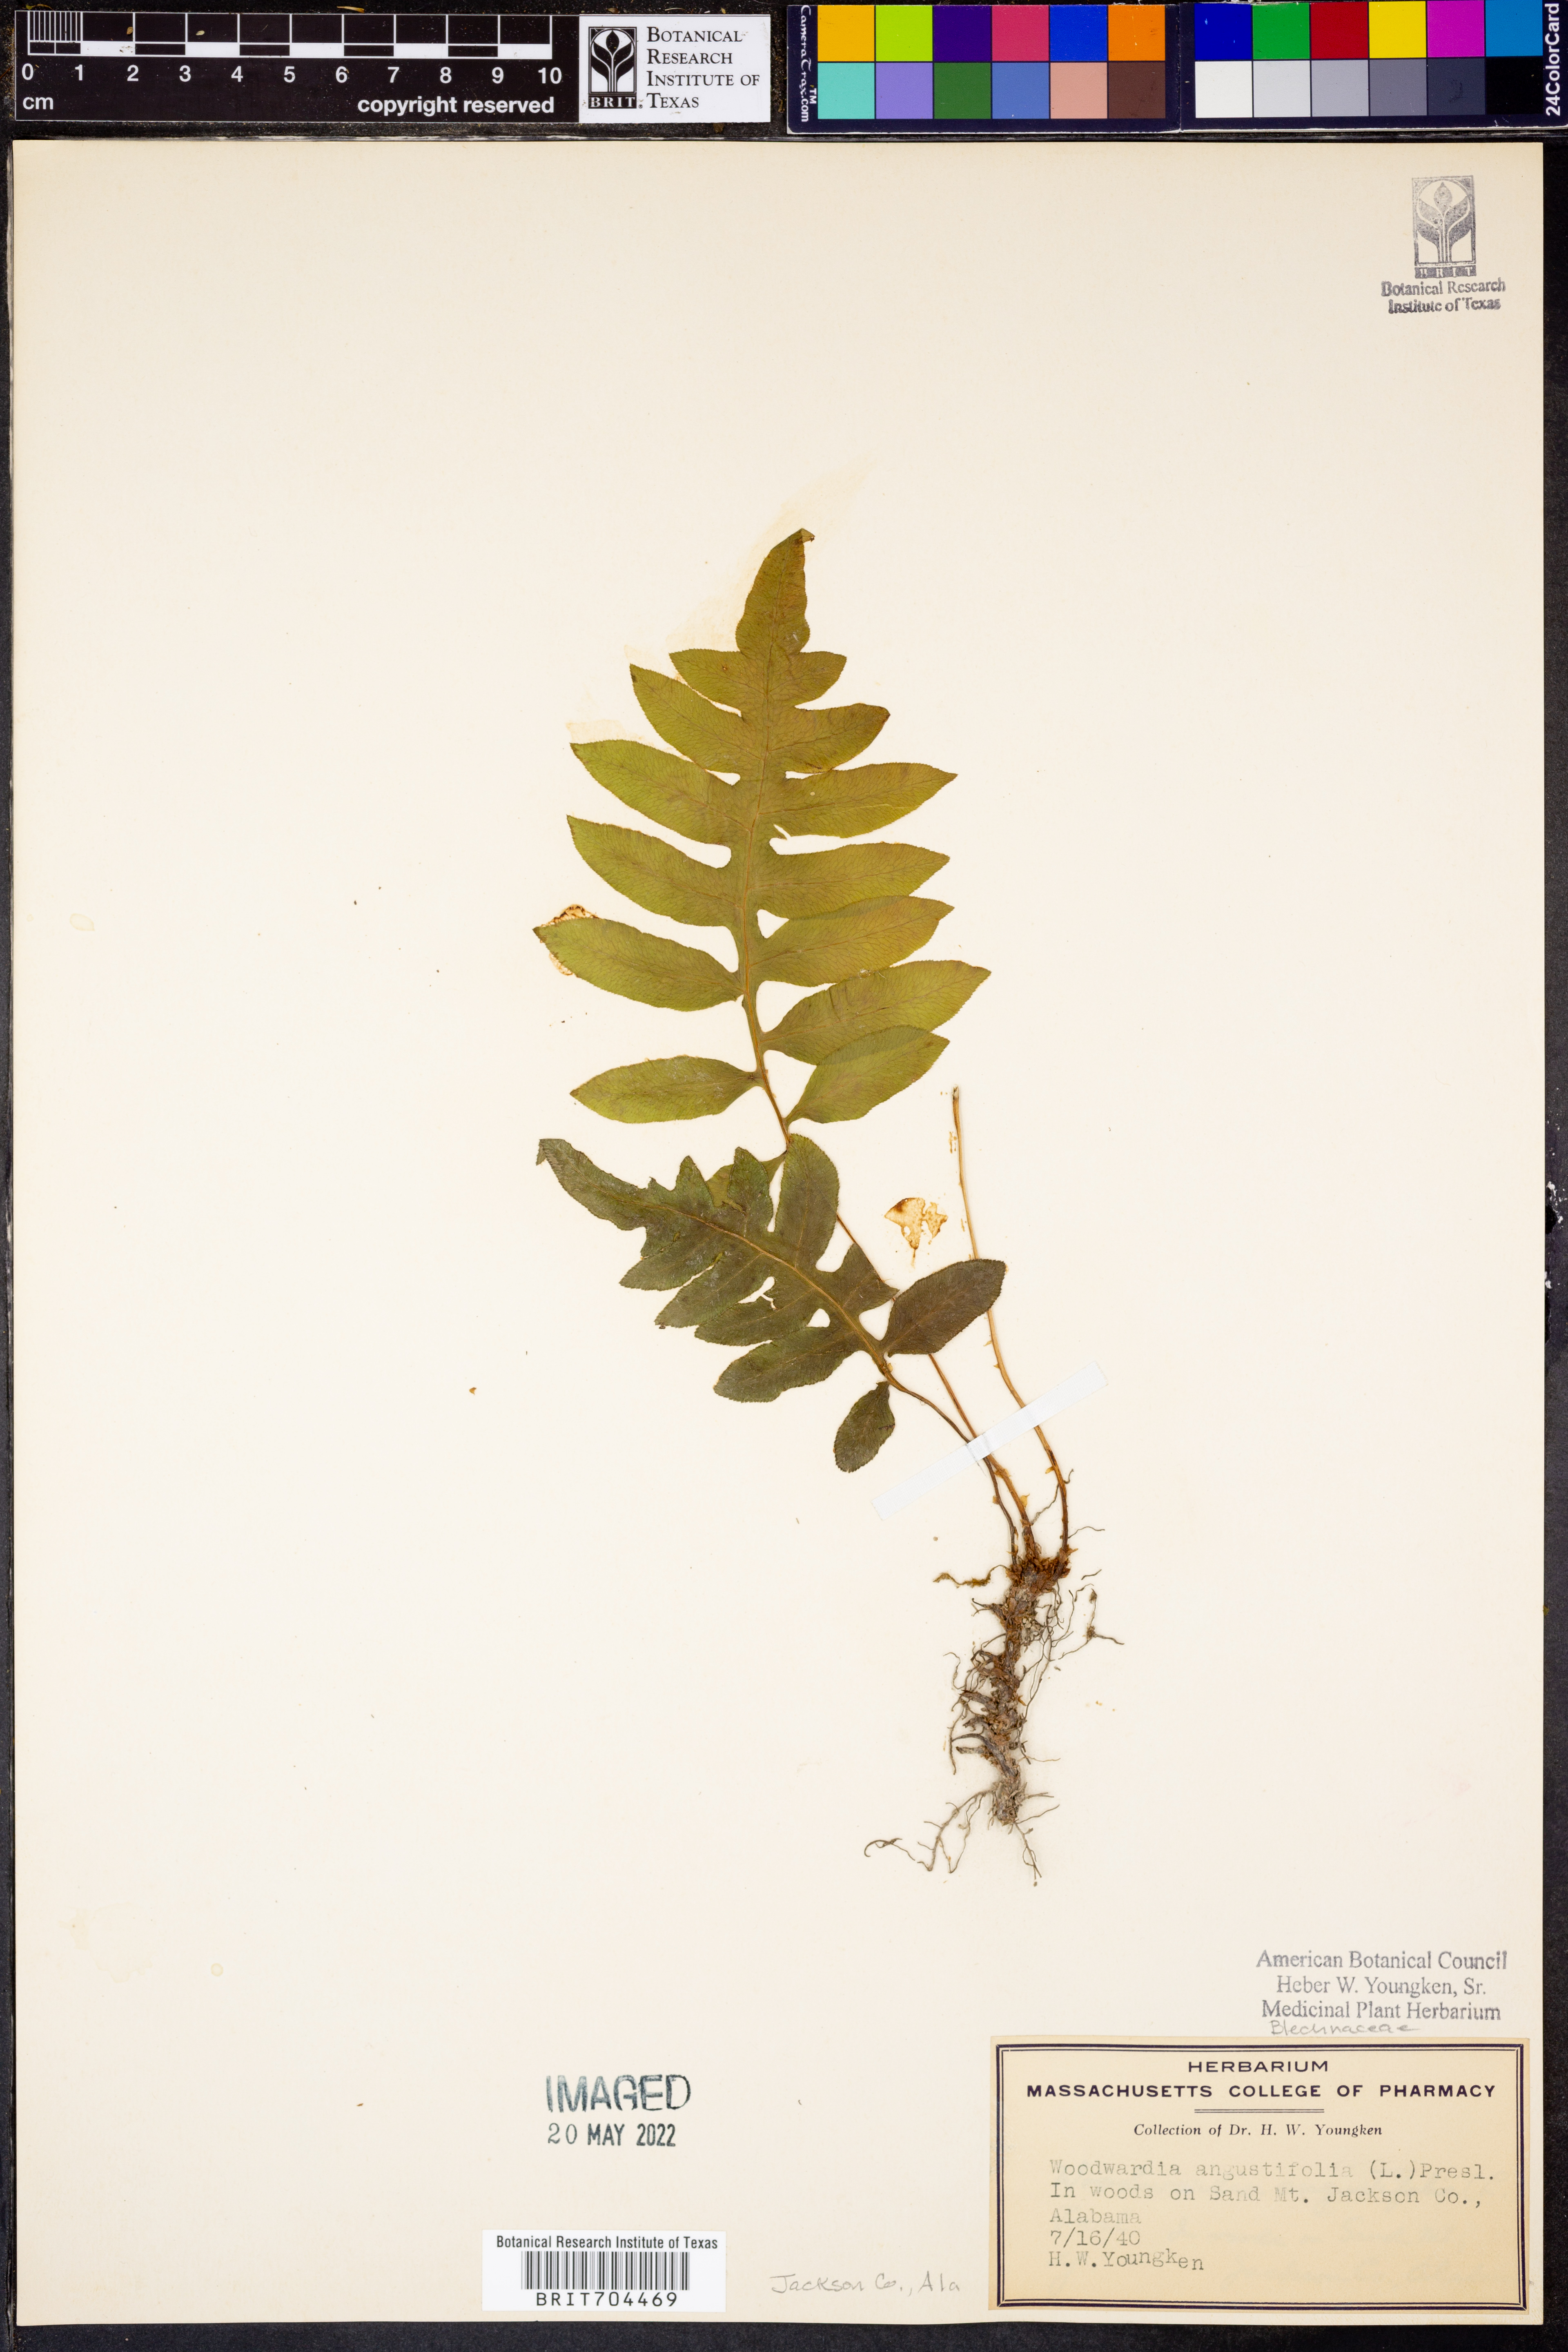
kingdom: Plantae
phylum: Tracheophyta
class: Polypodiopsida
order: Polypodiales
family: Blechnaceae
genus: Lorinseria
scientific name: Lorinseria areolata
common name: Dwarf chain fern
